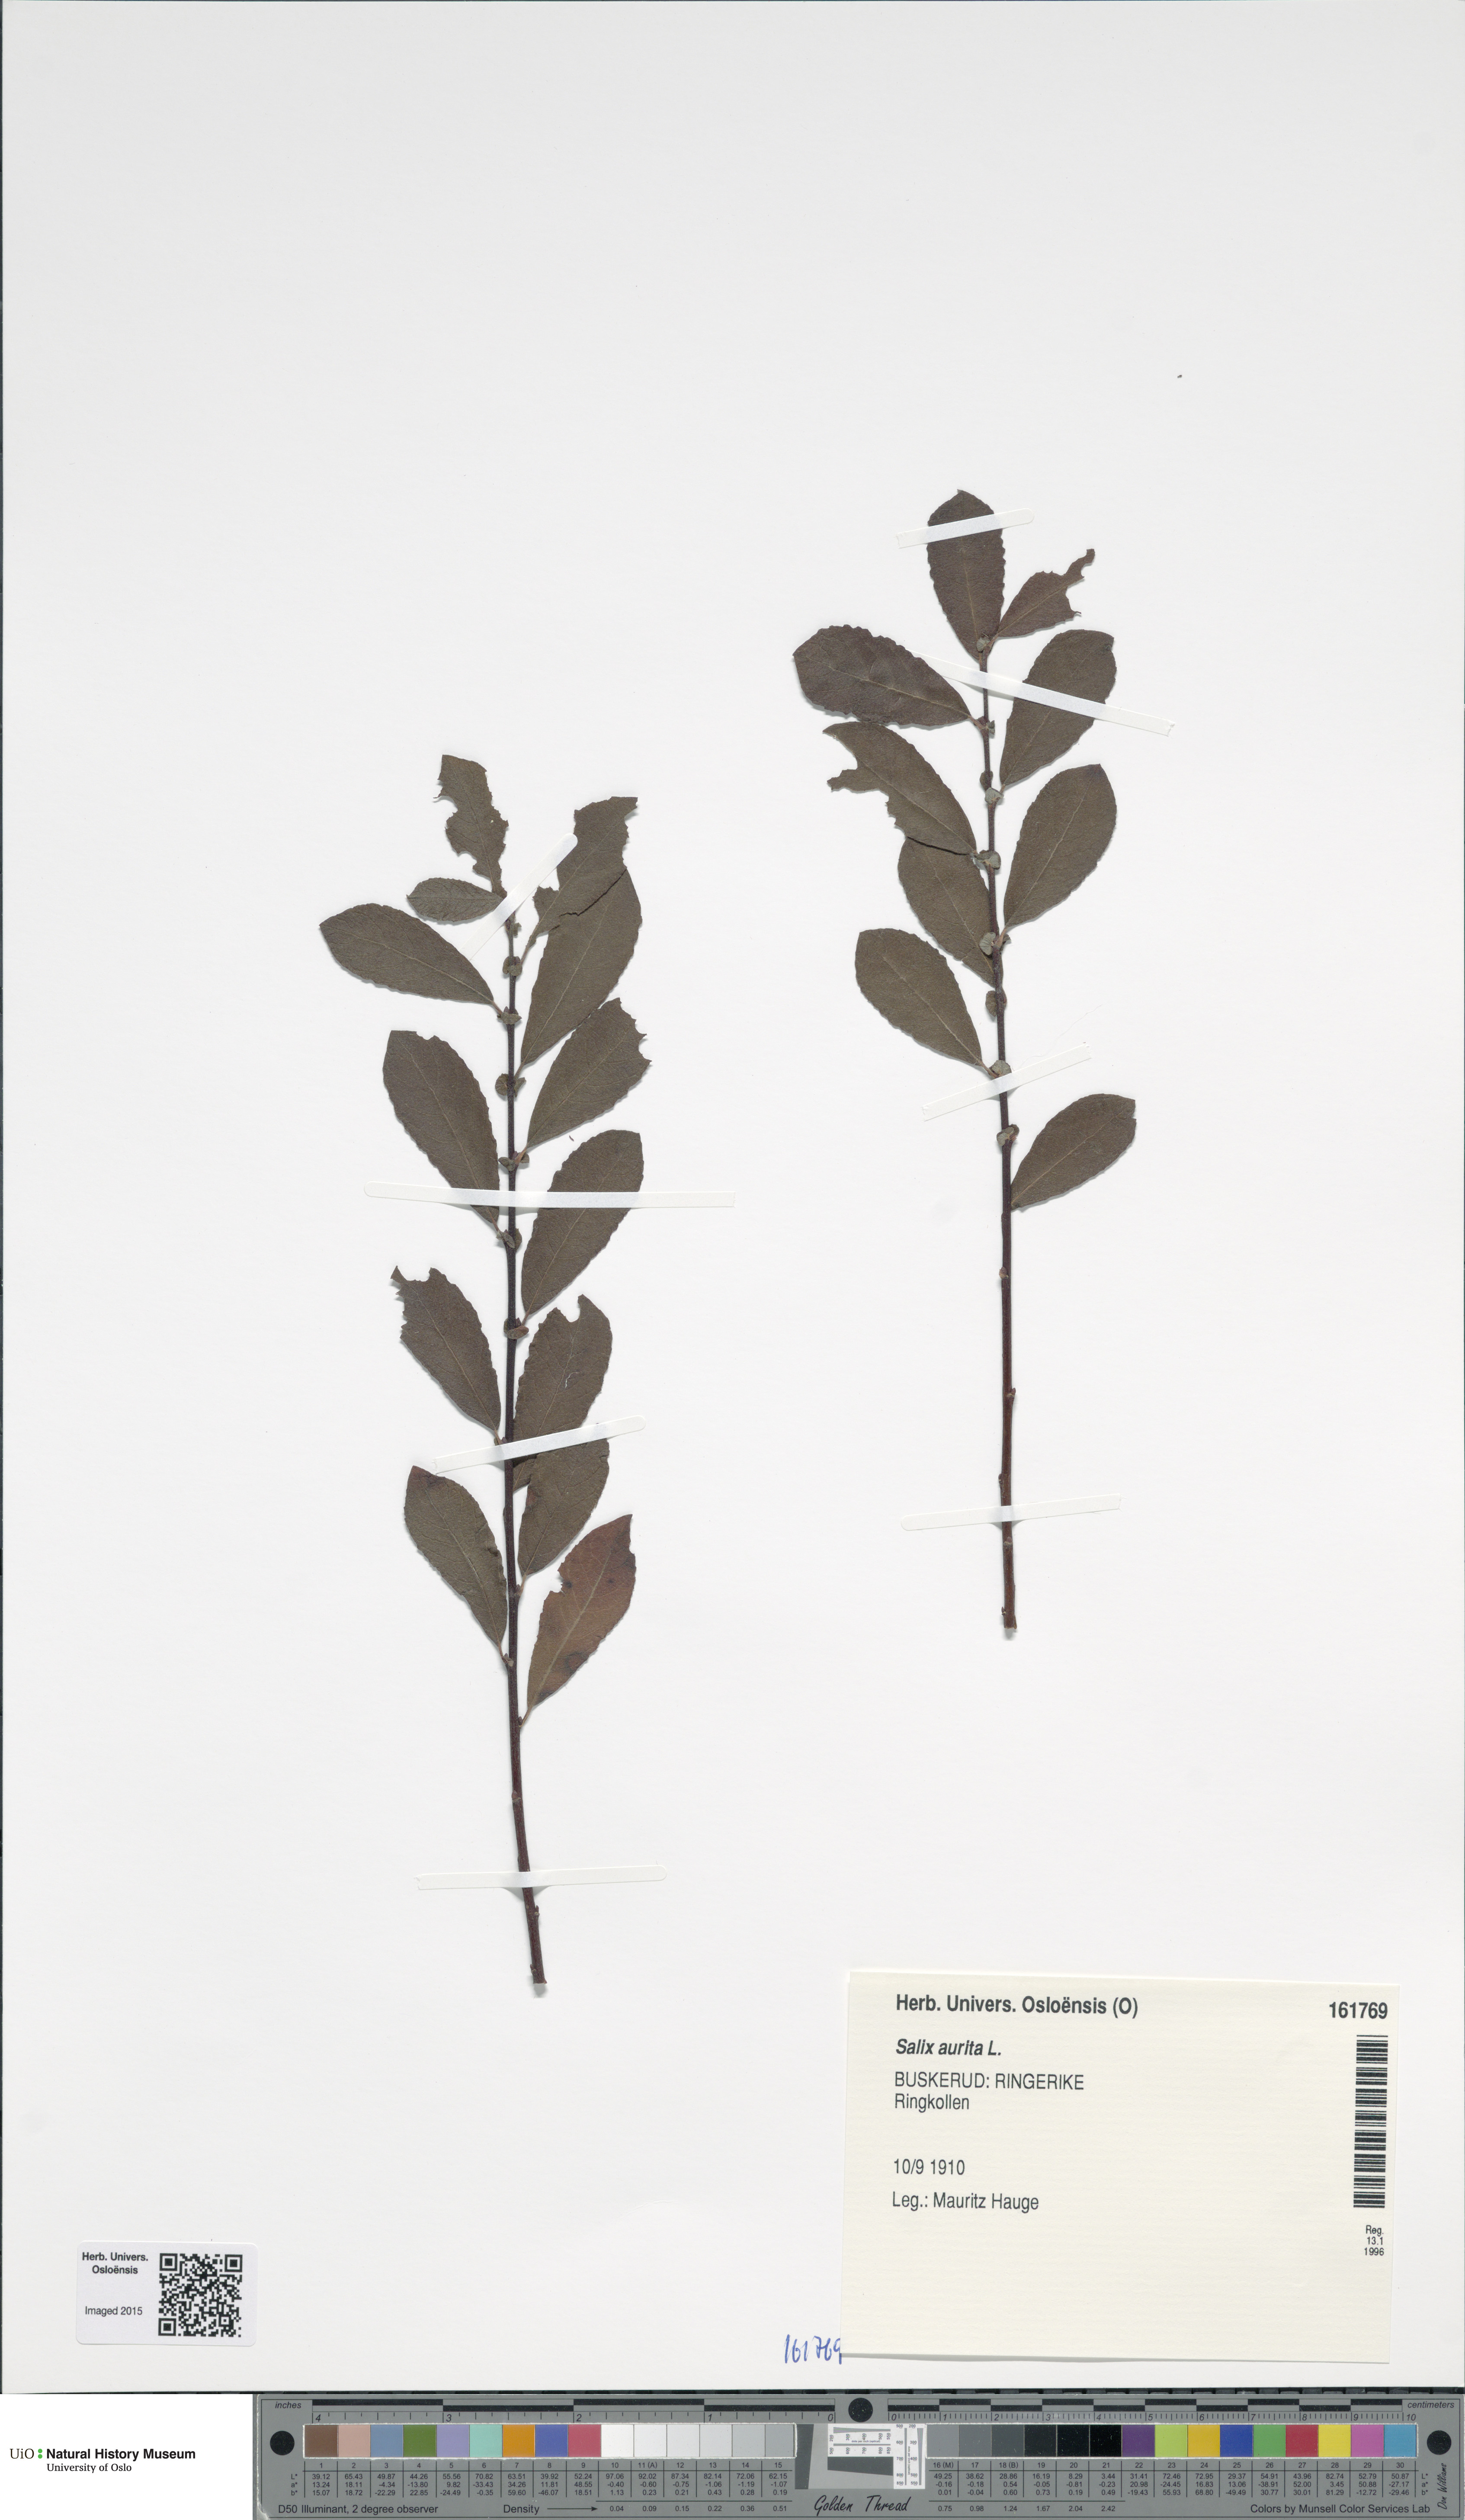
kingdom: Plantae
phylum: Tracheophyta
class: Magnoliopsida
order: Malpighiales
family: Salicaceae
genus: Salix
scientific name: Salix aurita
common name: Eared willow
